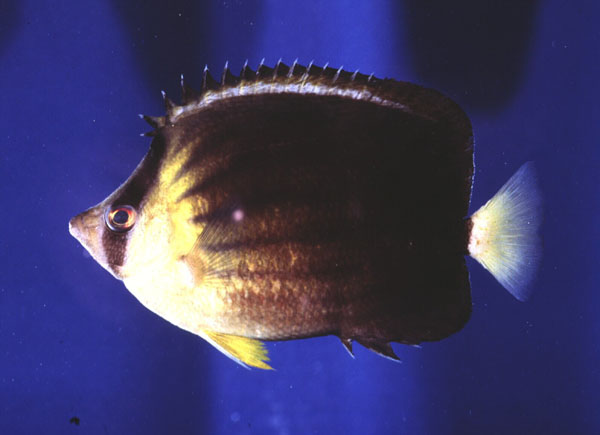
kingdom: Animalia
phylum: Chordata
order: Perciformes
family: Chaetodontidae
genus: Chaetodon
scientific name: Chaetodon blackburnii
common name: Blackburn's butterflyfish
